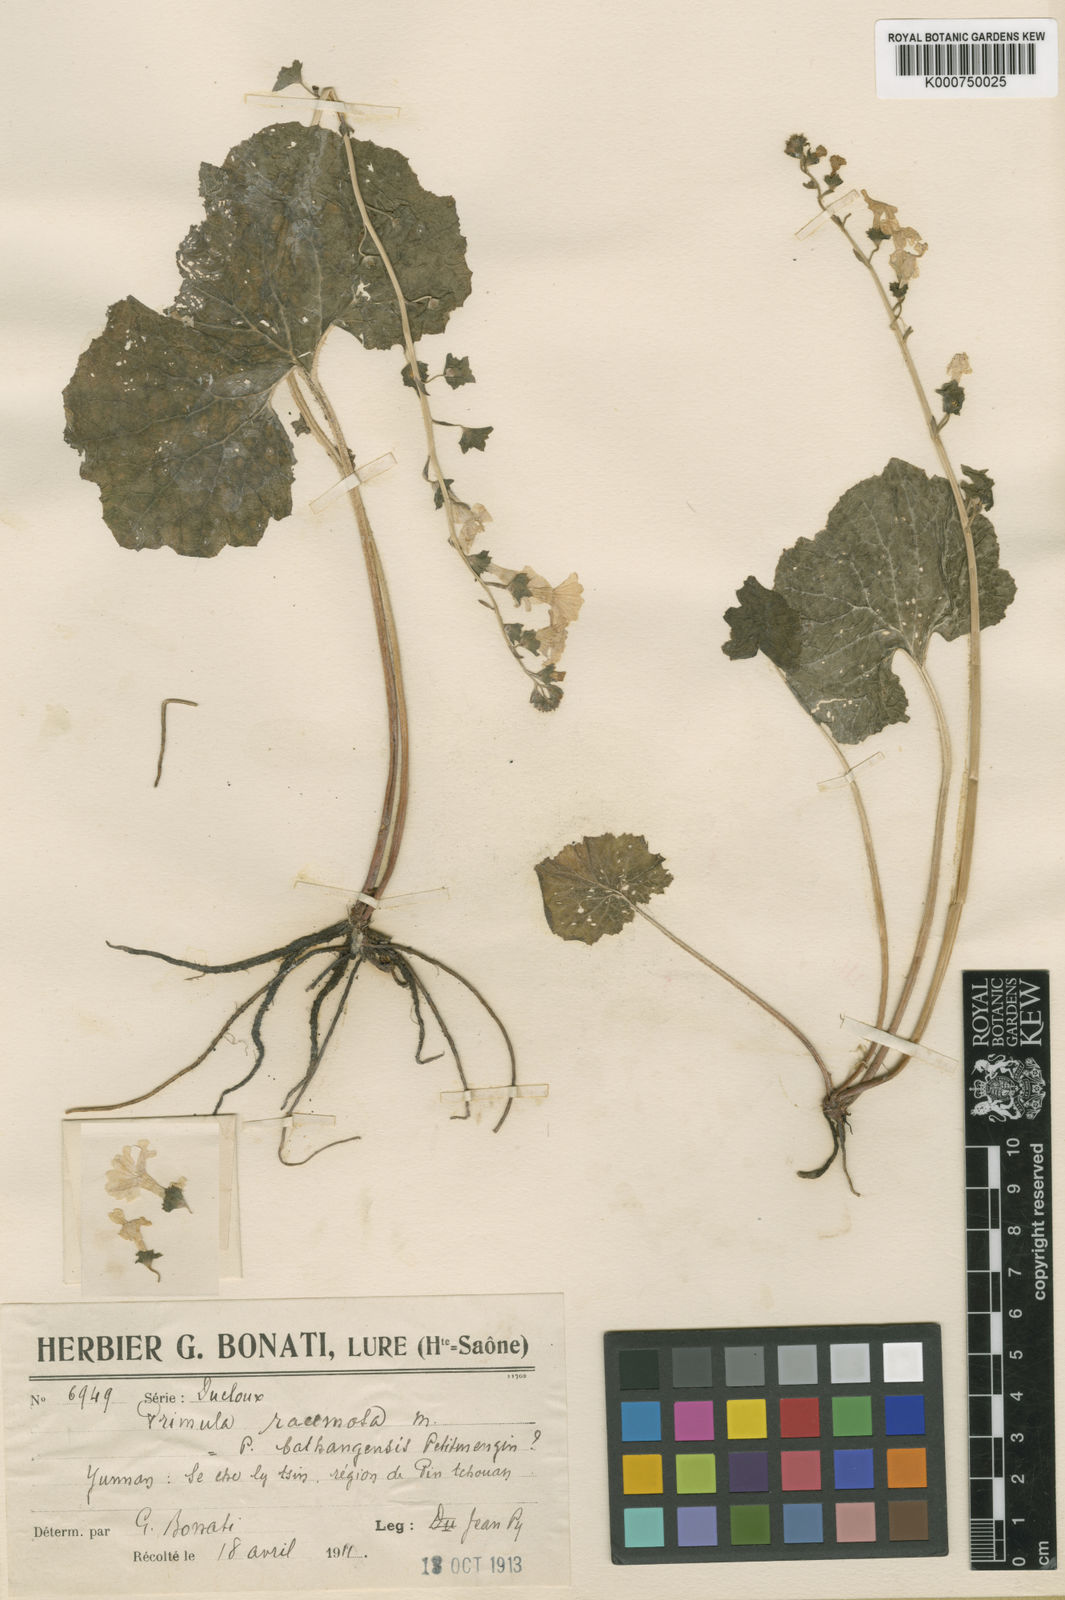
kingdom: Plantae
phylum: Tracheophyta
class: Magnoliopsida
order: Ericales
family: Primulaceae
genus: Primula
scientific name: Primula bathangensis
